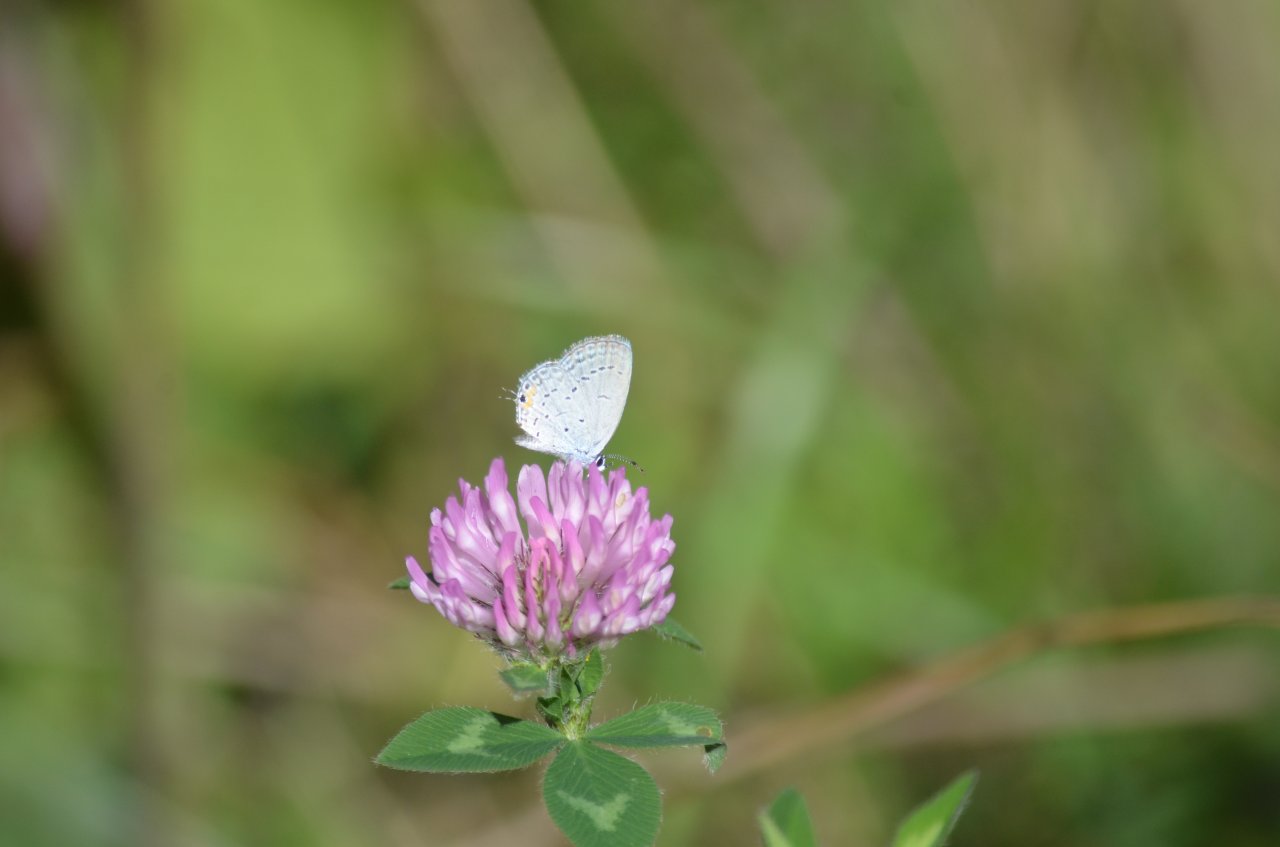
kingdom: Animalia
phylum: Arthropoda
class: Insecta
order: Lepidoptera
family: Lycaenidae
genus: Elkalyce
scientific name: Elkalyce comyntas
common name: Eastern Tailed-Blue
